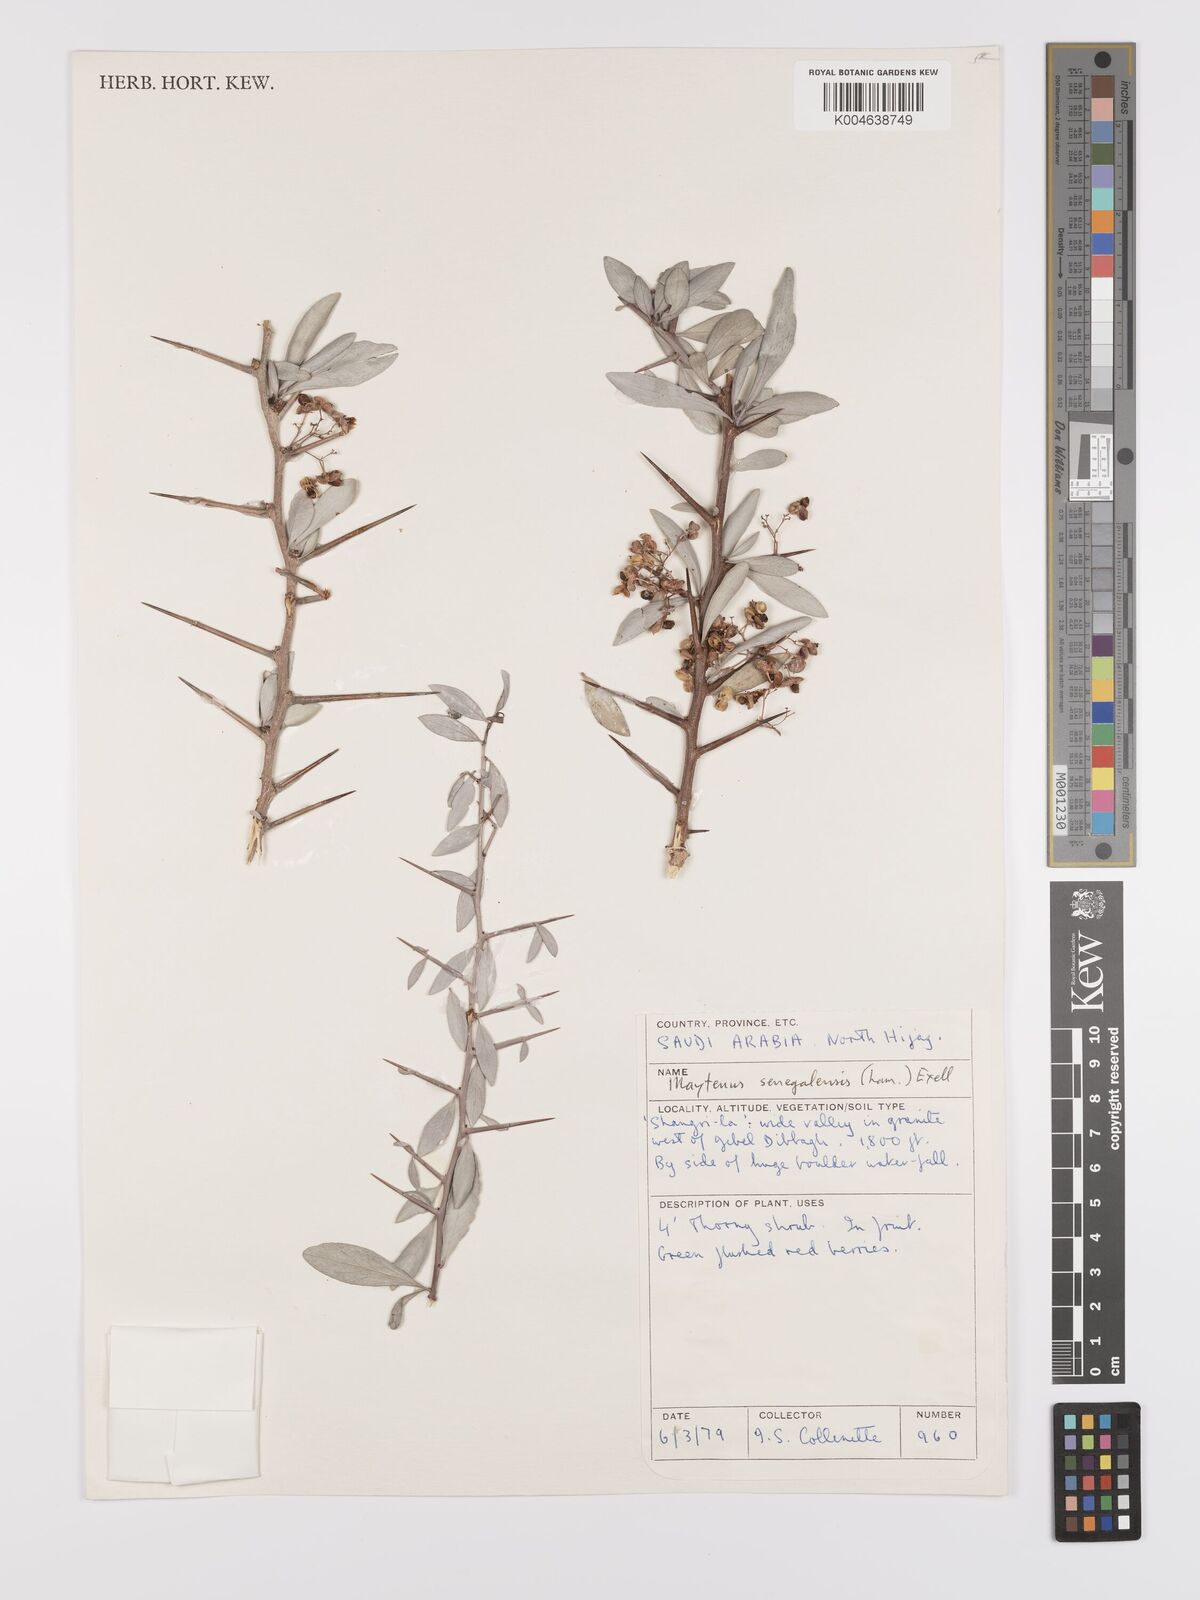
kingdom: Plantae
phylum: Tracheophyta
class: Magnoliopsida
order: Celastrales
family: Celastraceae
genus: Gymnosporia
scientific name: Gymnosporia senegalensis
